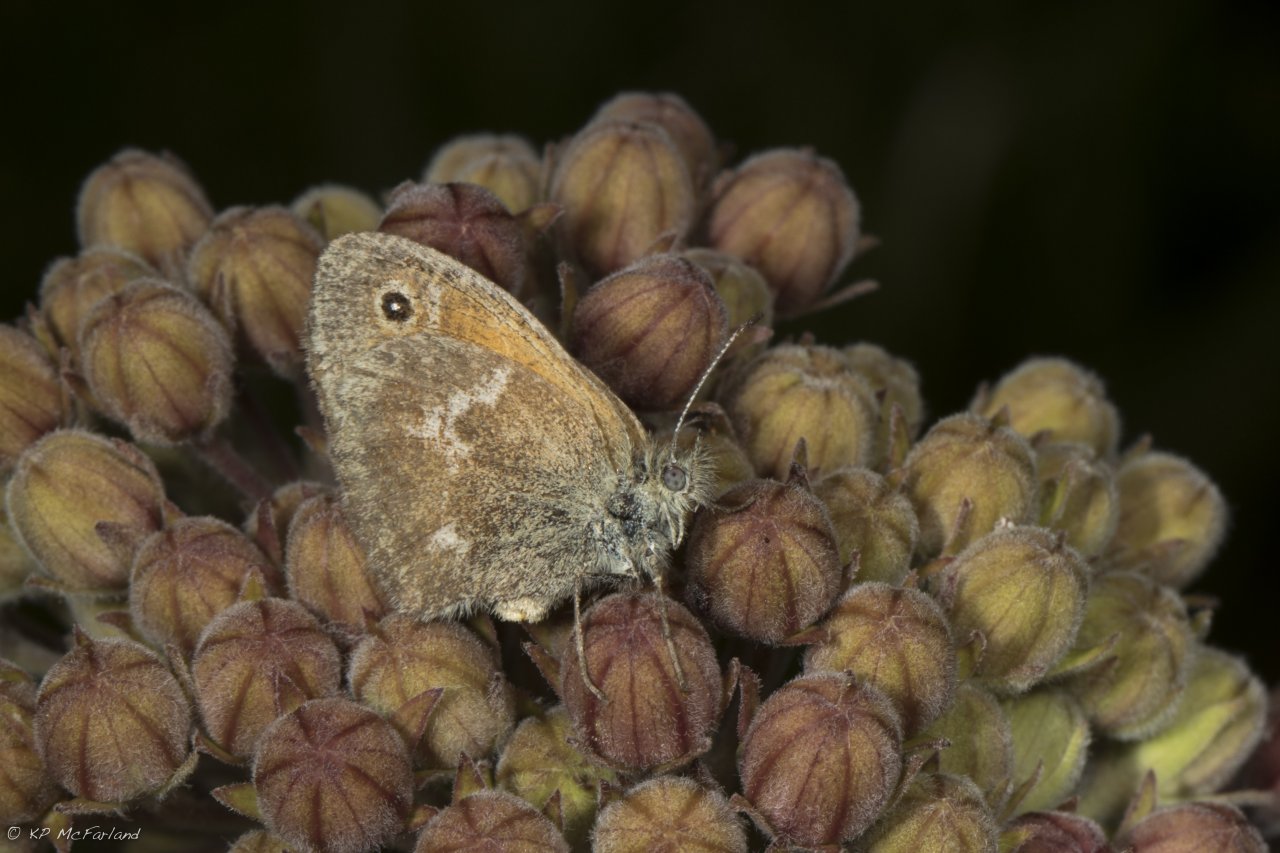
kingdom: Animalia
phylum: Arthropoda
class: Insecta
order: Lepidoptera
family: Nymphalidae
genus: Coenonympha
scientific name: Coenonympha tullia
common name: Large Heath
